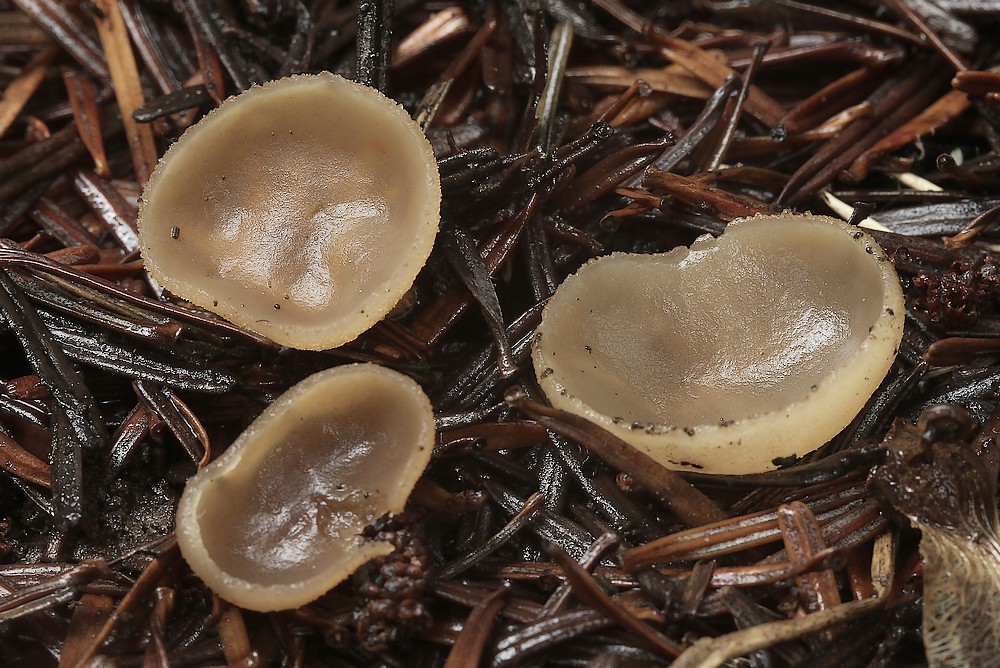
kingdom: Fungi
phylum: Ascomycota
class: Pezizomycetes
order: Pezizales
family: Pezizaceae
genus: Peziza
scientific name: Peziza
